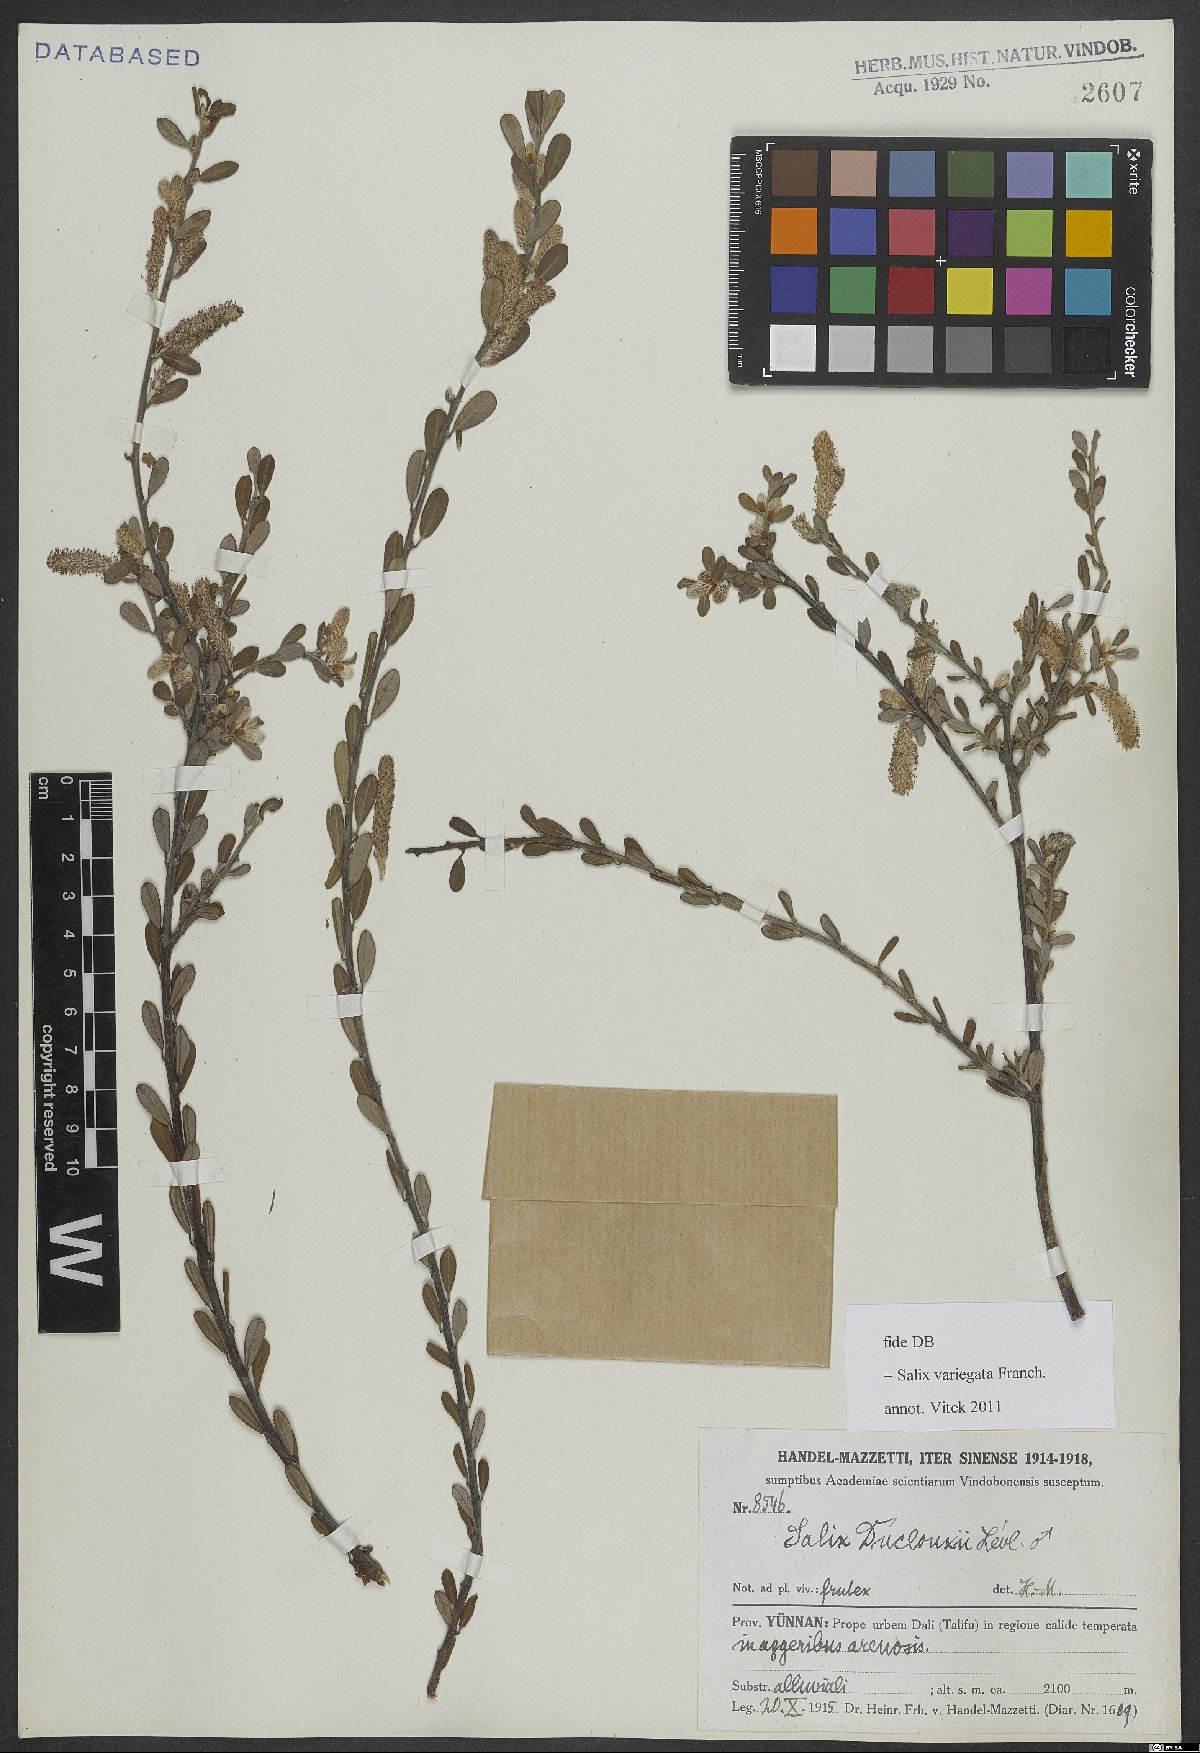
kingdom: Plantae
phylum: Tracheophyta
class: Magnoliopsida
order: Malpighiales
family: Salicaceae
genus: Salix
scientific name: Salix variegata
